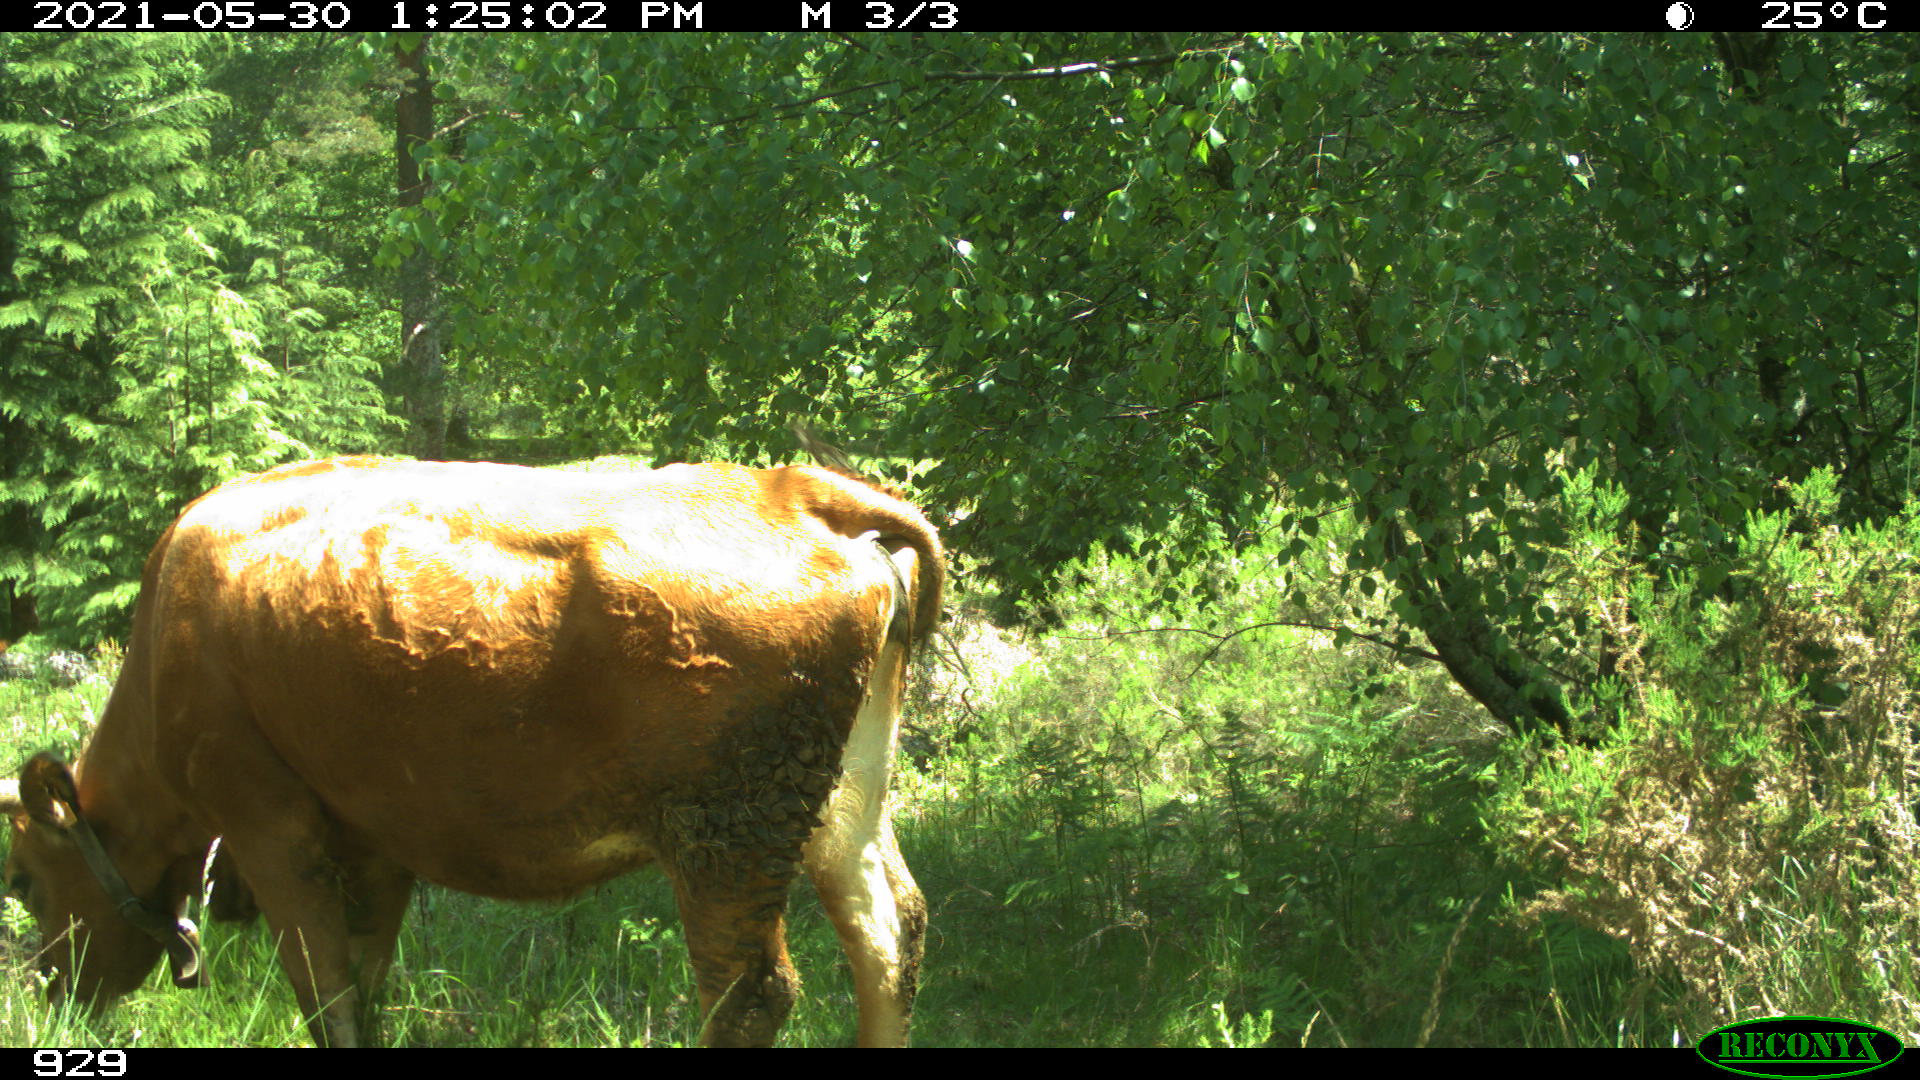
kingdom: Animalia
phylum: Chordata
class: Mammalia
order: Artiodactyla
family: Bovidae
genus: Bos
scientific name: Bos taurus
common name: Domesticated cattle
